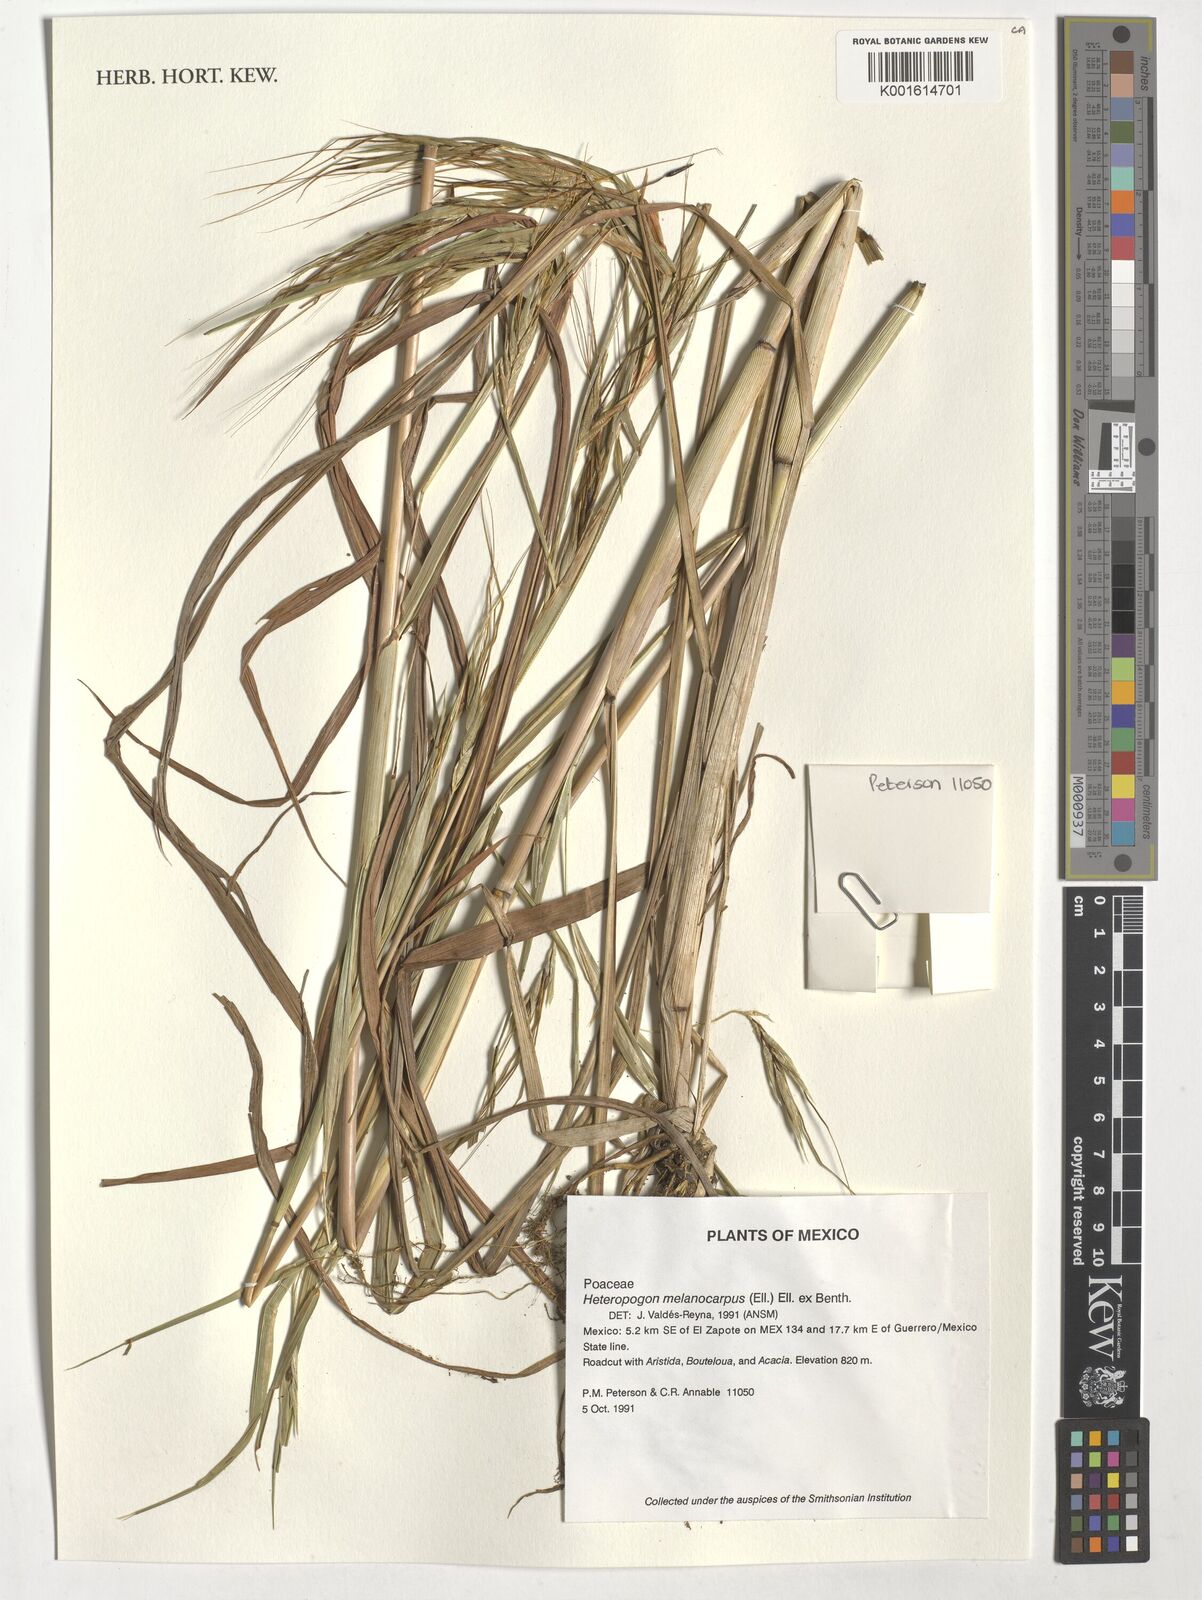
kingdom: Plantae
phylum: Tracheophyta
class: Liliopsida
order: Poales
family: Poaceae
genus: Heteropogon
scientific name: Heteropogon melanocarpus
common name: Sweet tanglehead
